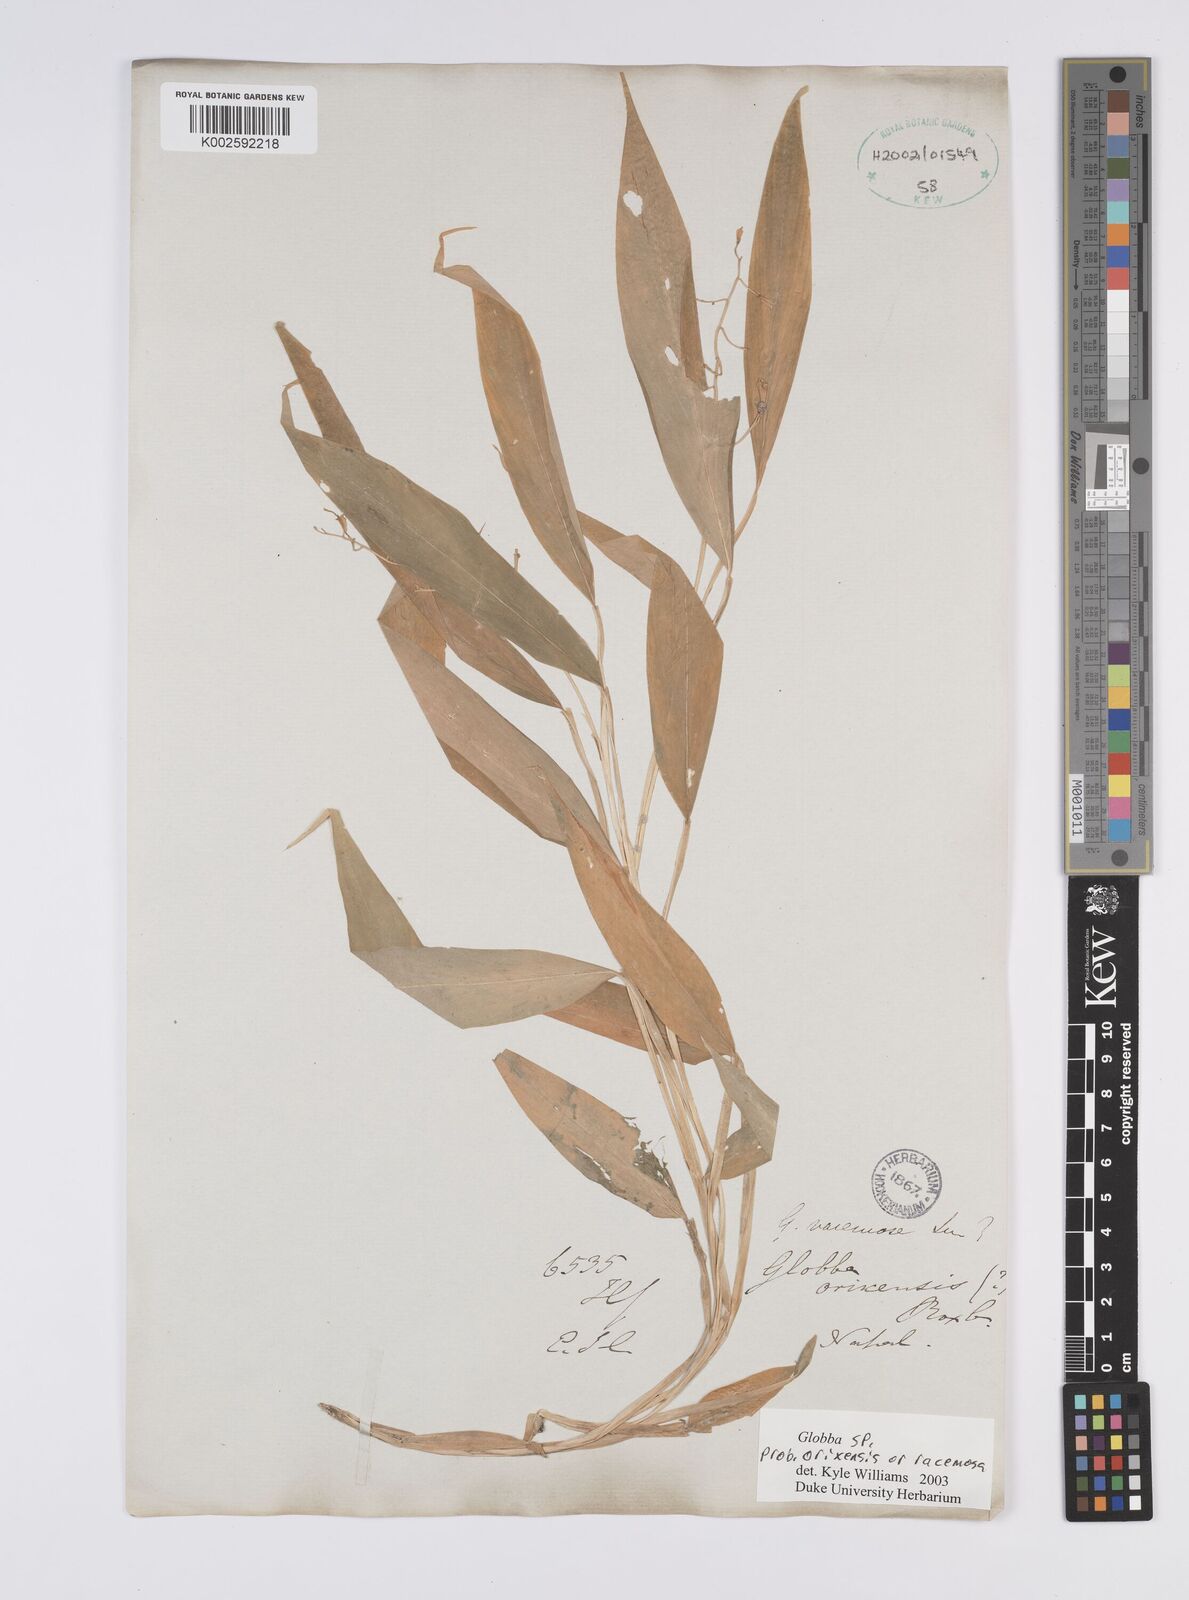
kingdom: Plantae
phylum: Tracheophyta
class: Liliopsida
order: Zingiberales
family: Zingiberaceae
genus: Globba
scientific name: Globba orixensis
